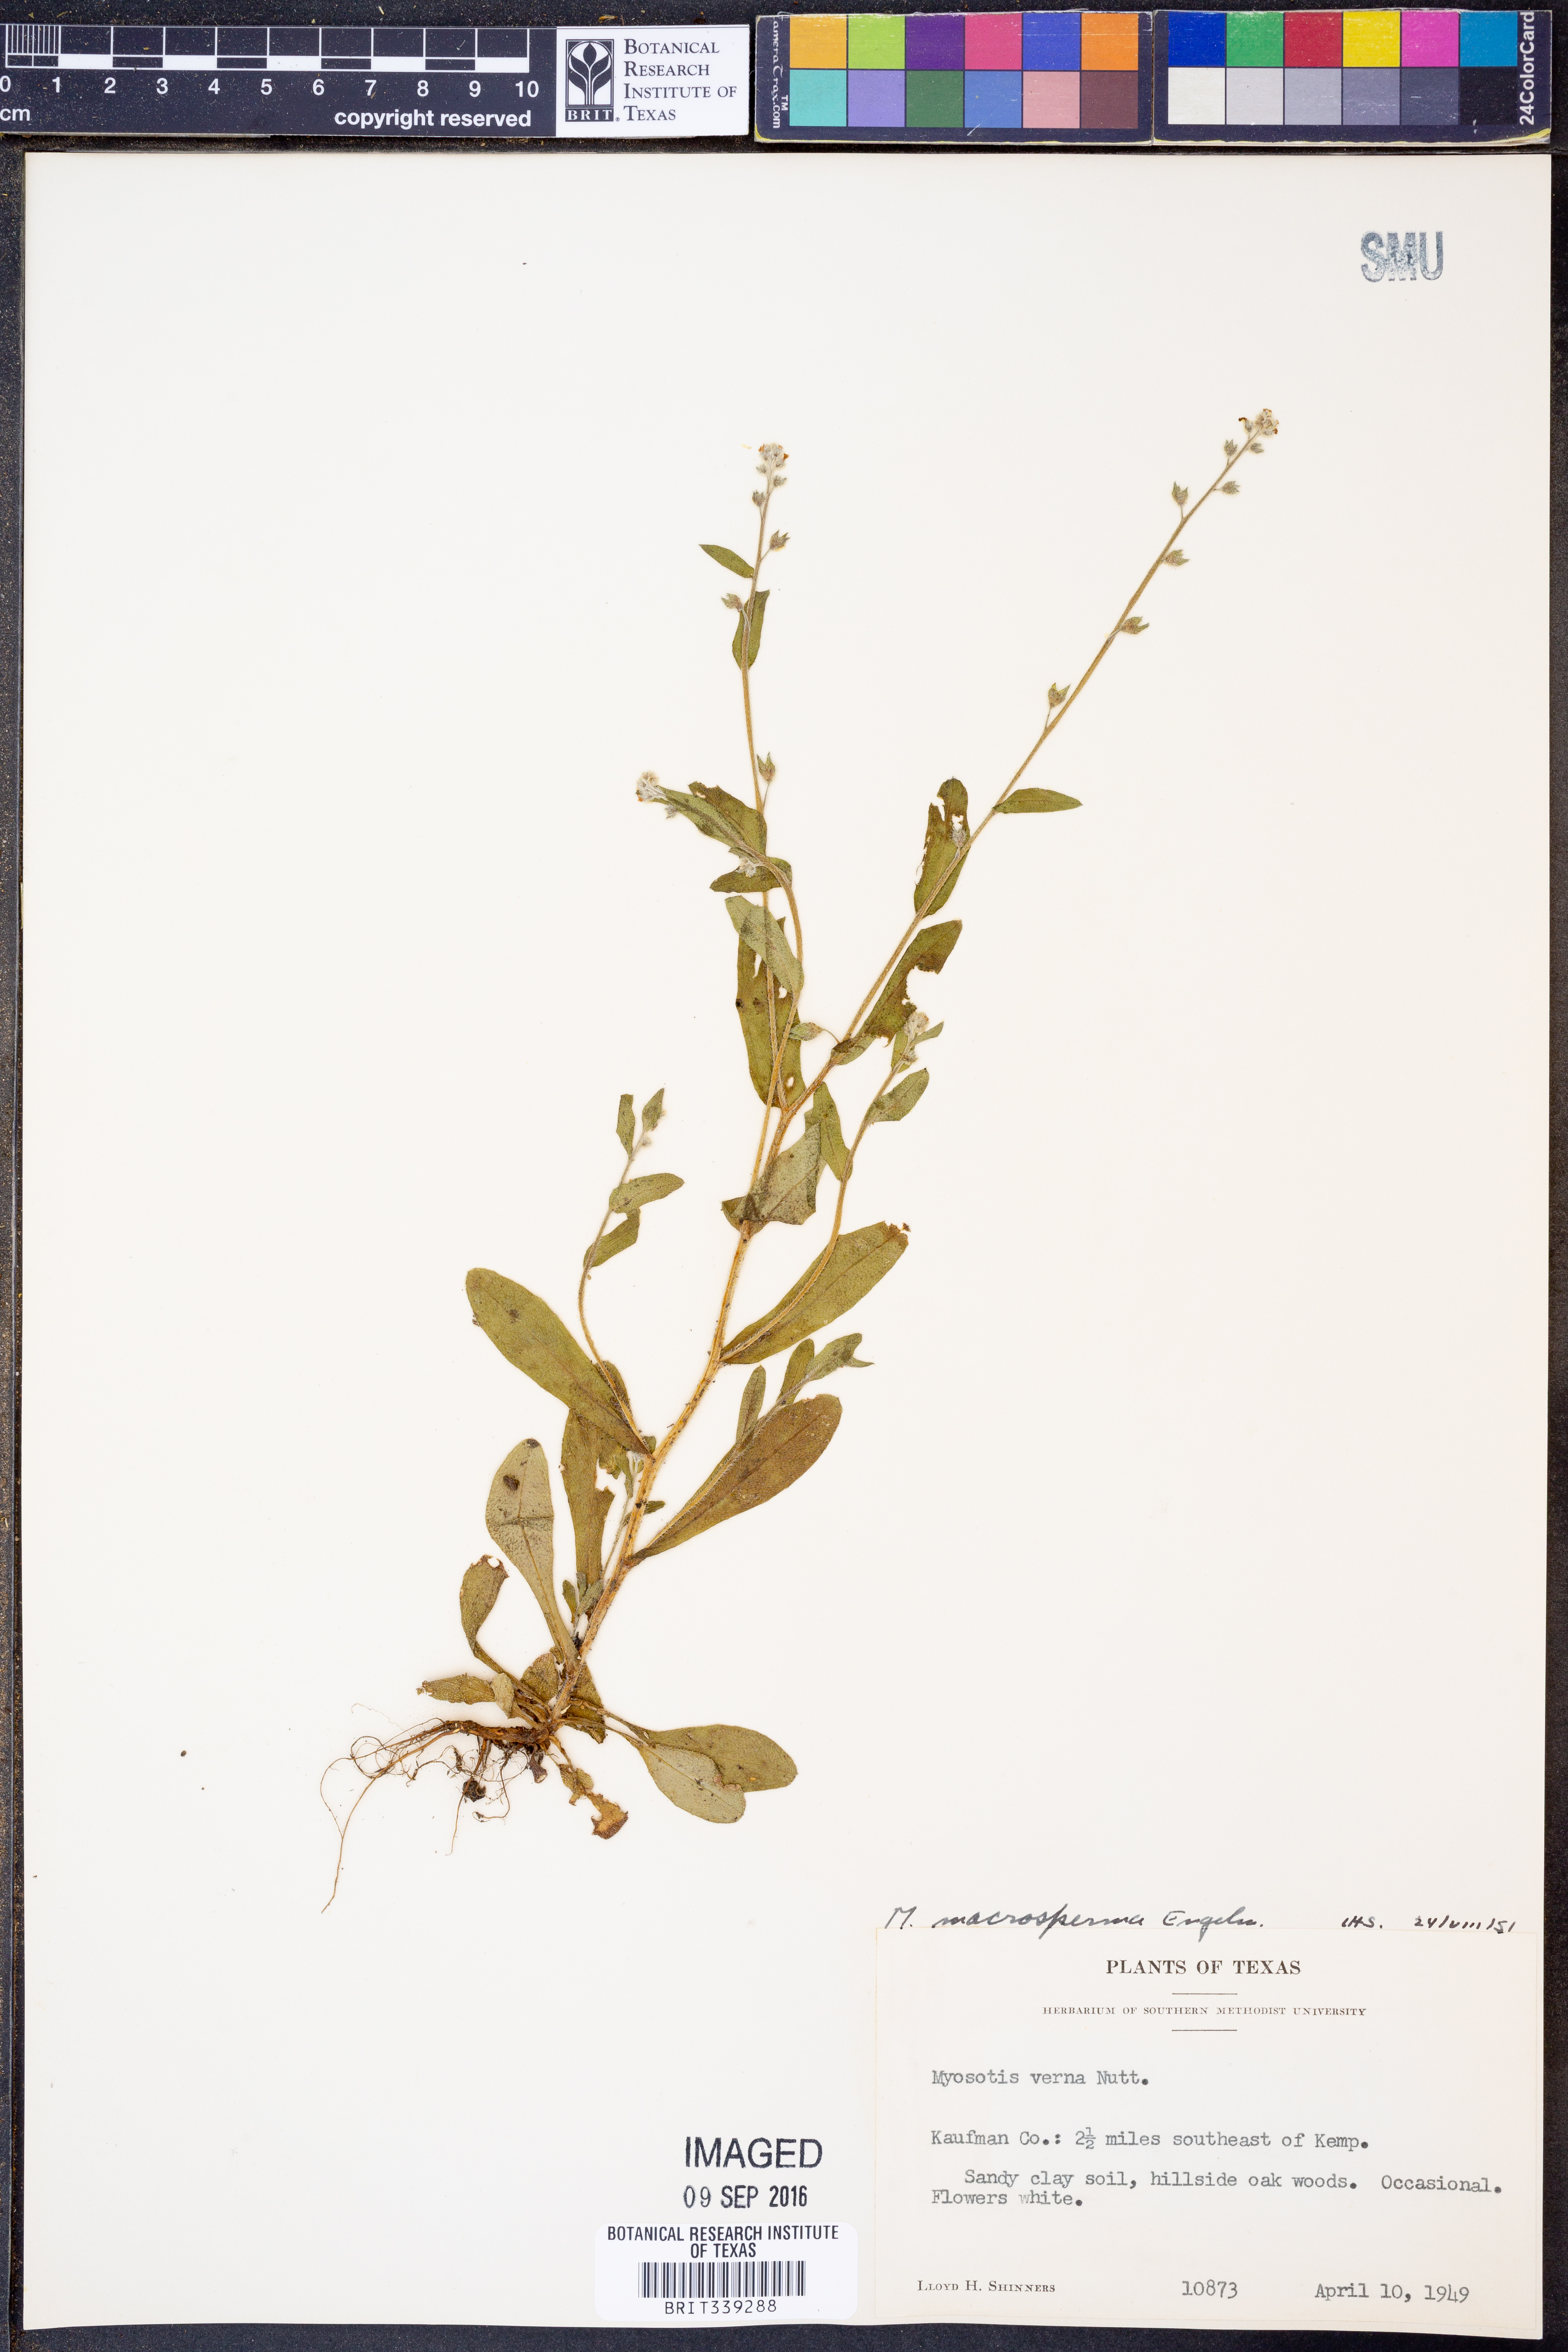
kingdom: Plantae
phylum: Tracheophyta
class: Magnoliopsida
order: Boraginales
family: Boraginaceae
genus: Myosotis
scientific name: Myosotis macrosperma
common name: Large-seed forget-me-not
